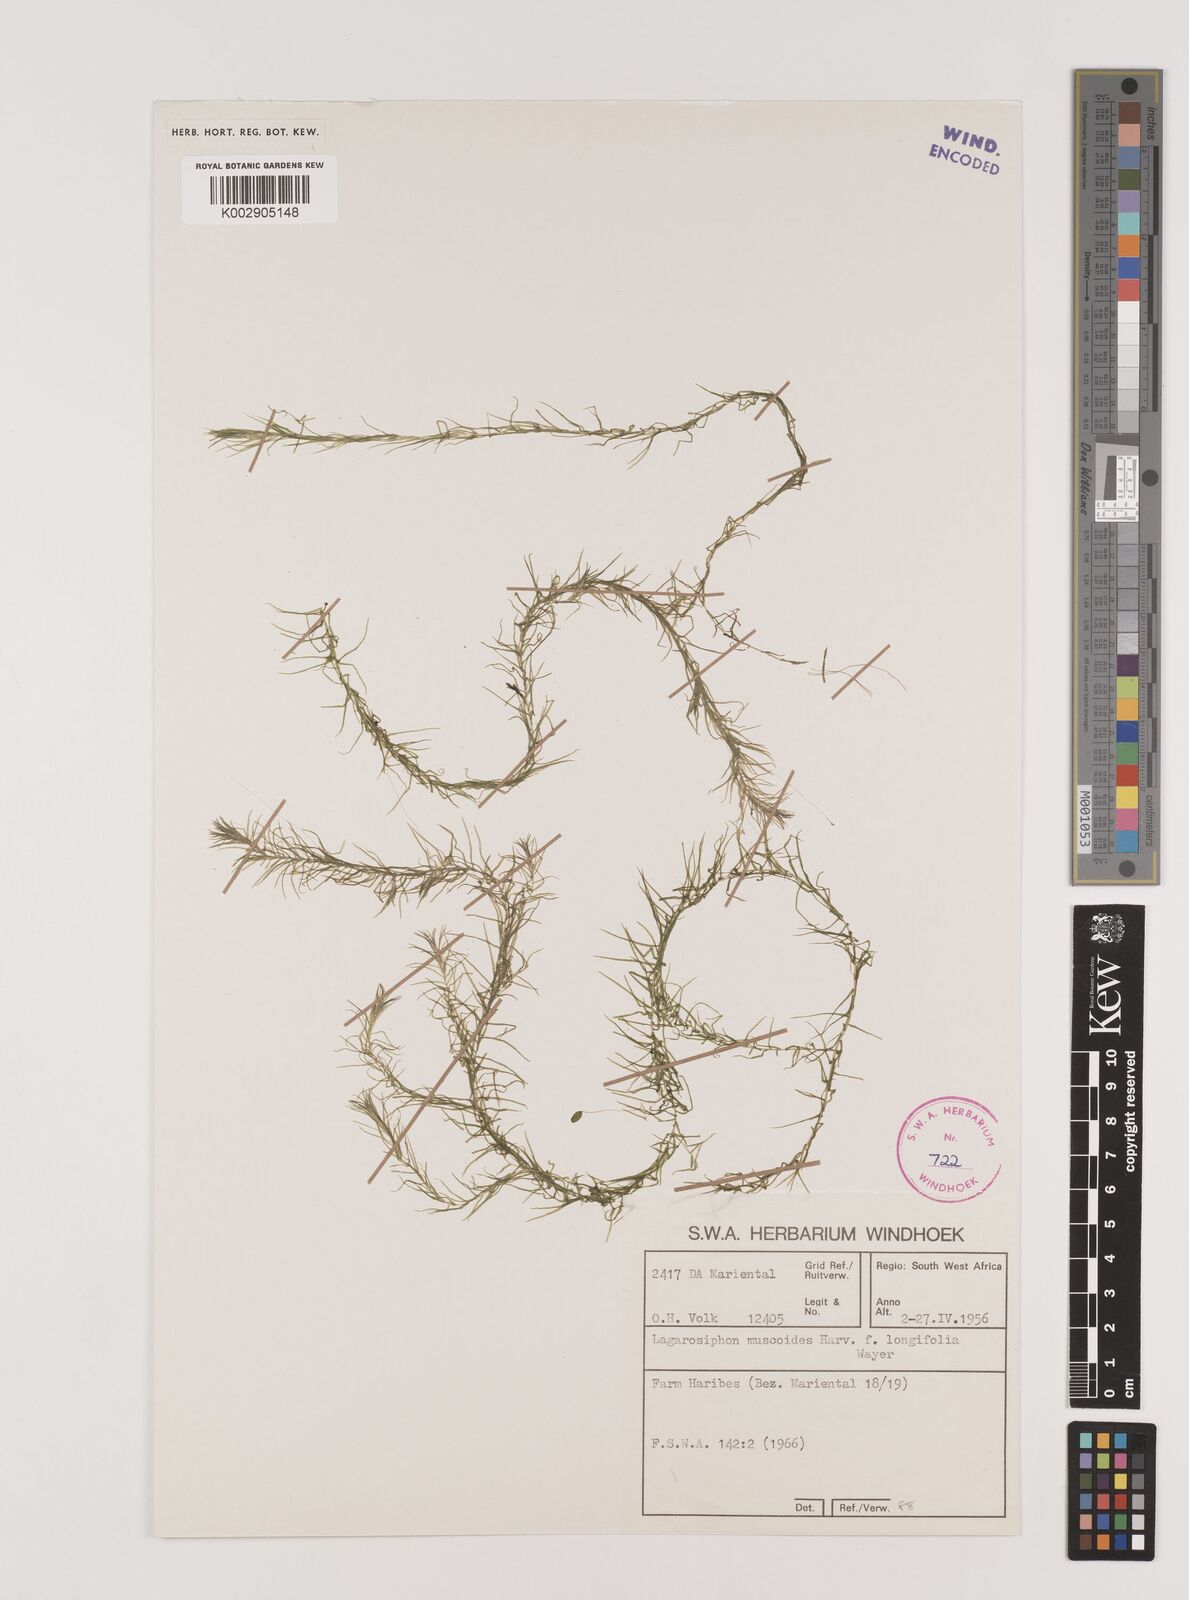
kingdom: Plantae
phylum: Tracheophyta
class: Liliopsida
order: Alismatales
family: Hydrocharitaceae
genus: Lagarosiphon
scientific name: Lagarosiphon muscoides
